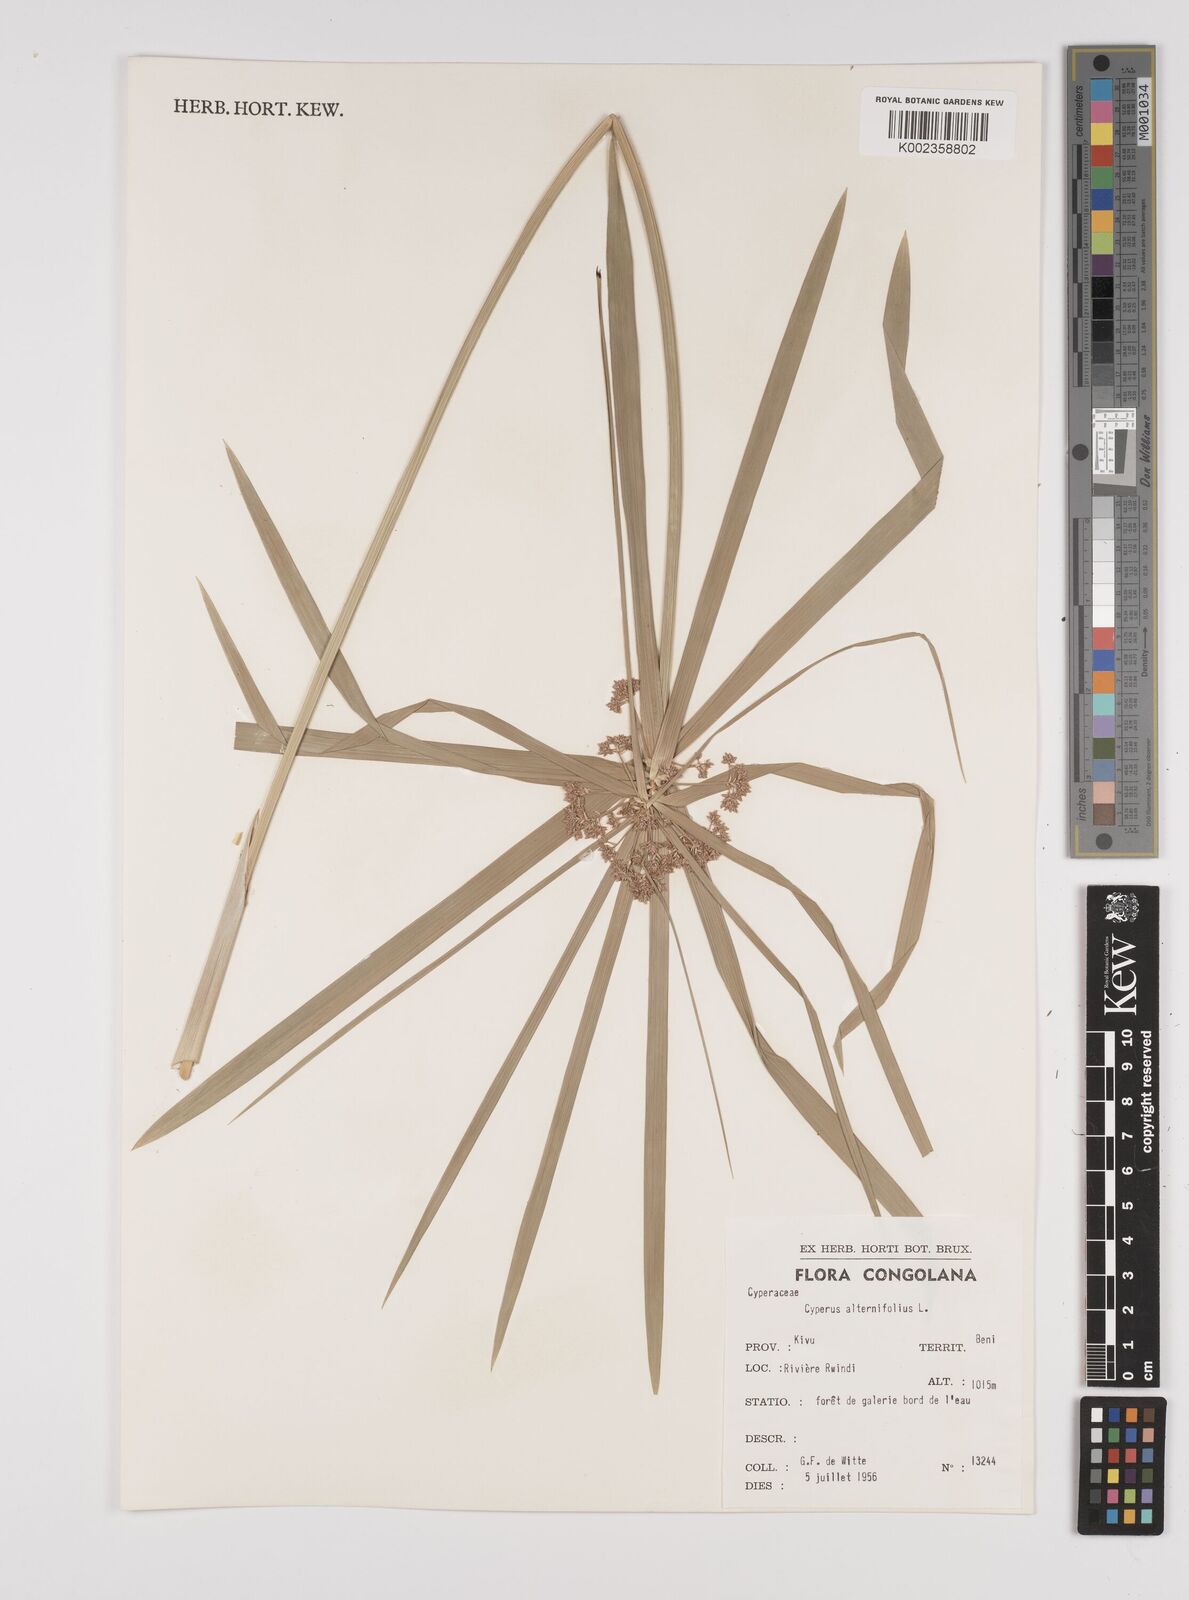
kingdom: Plantae
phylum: Tracheophyta
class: Liliopsida
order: Poales
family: Cyperaceae
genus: Cyperus
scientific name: Cyperus alternifolius
